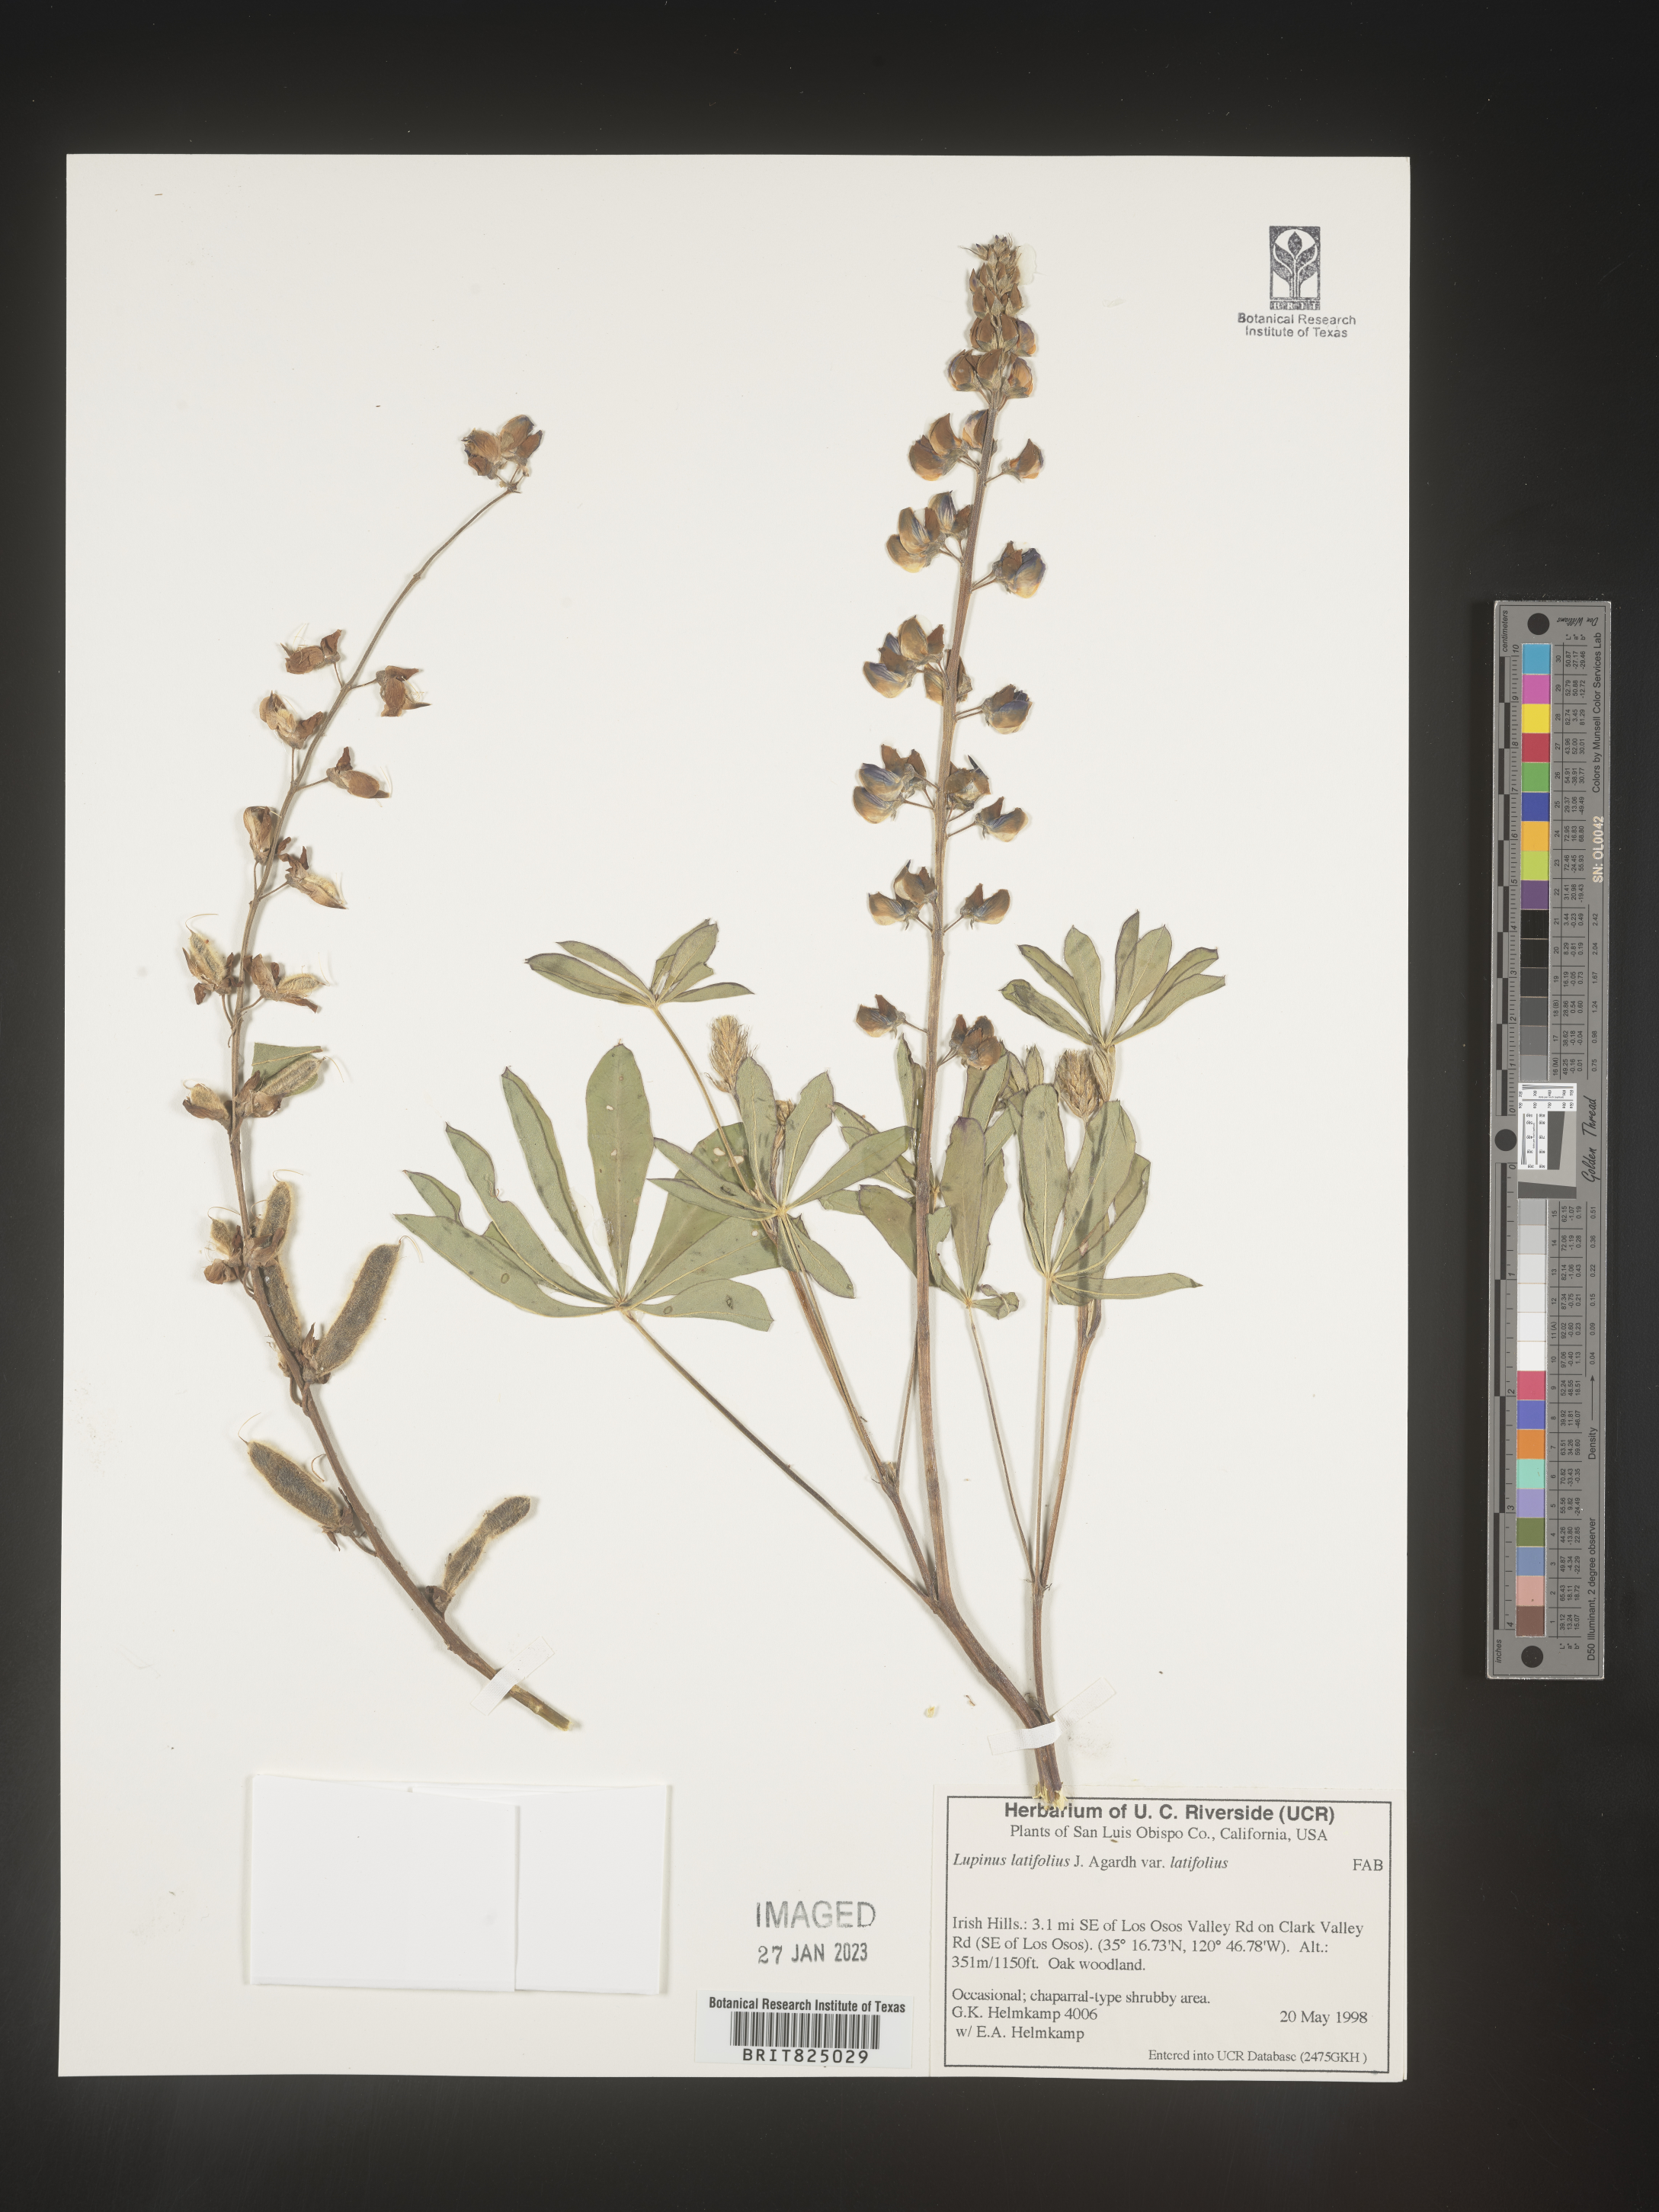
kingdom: Plantae
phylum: Tracheophyta
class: Magnoliopsida
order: Fabales
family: Fabaceae
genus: Lupinus
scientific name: Lupinus
